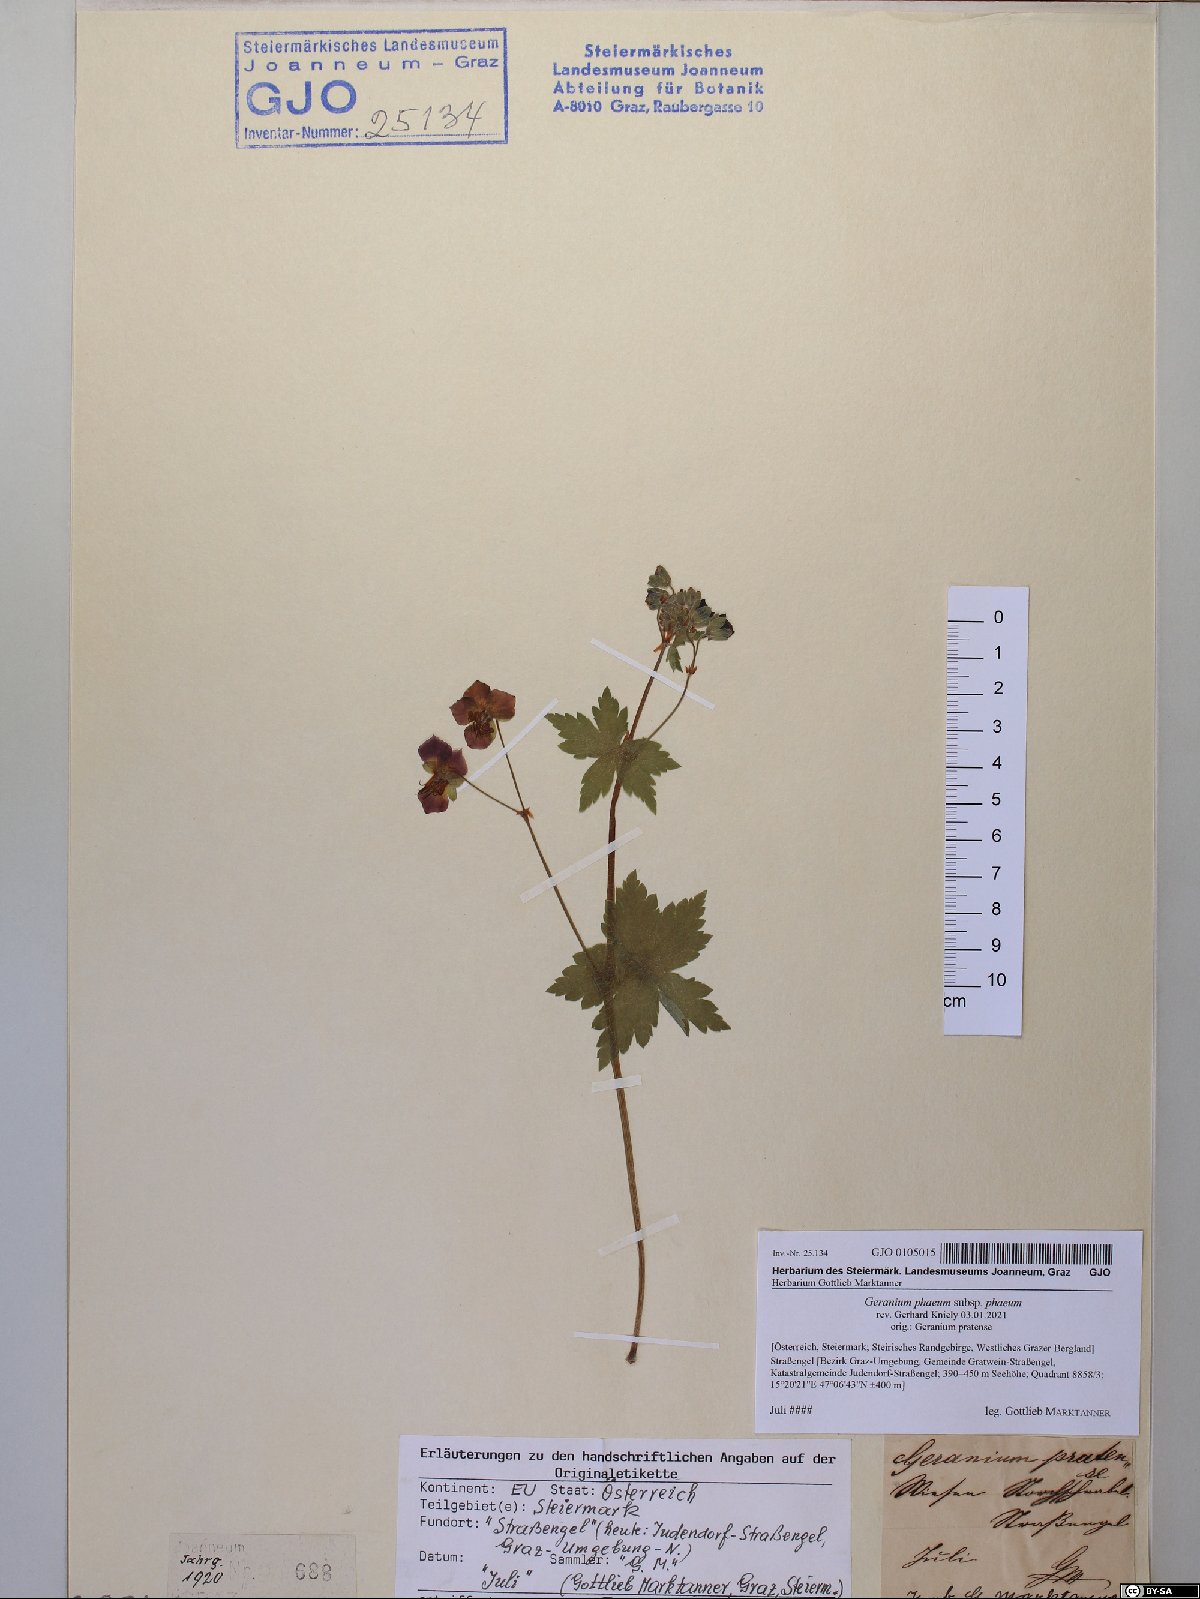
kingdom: Plantae
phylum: Tracheophyta
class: Magnoliopsida
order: Geraniales
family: Geraniaceae
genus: Geranium
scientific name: Geranium phaeum
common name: Dusky crane's-bill
